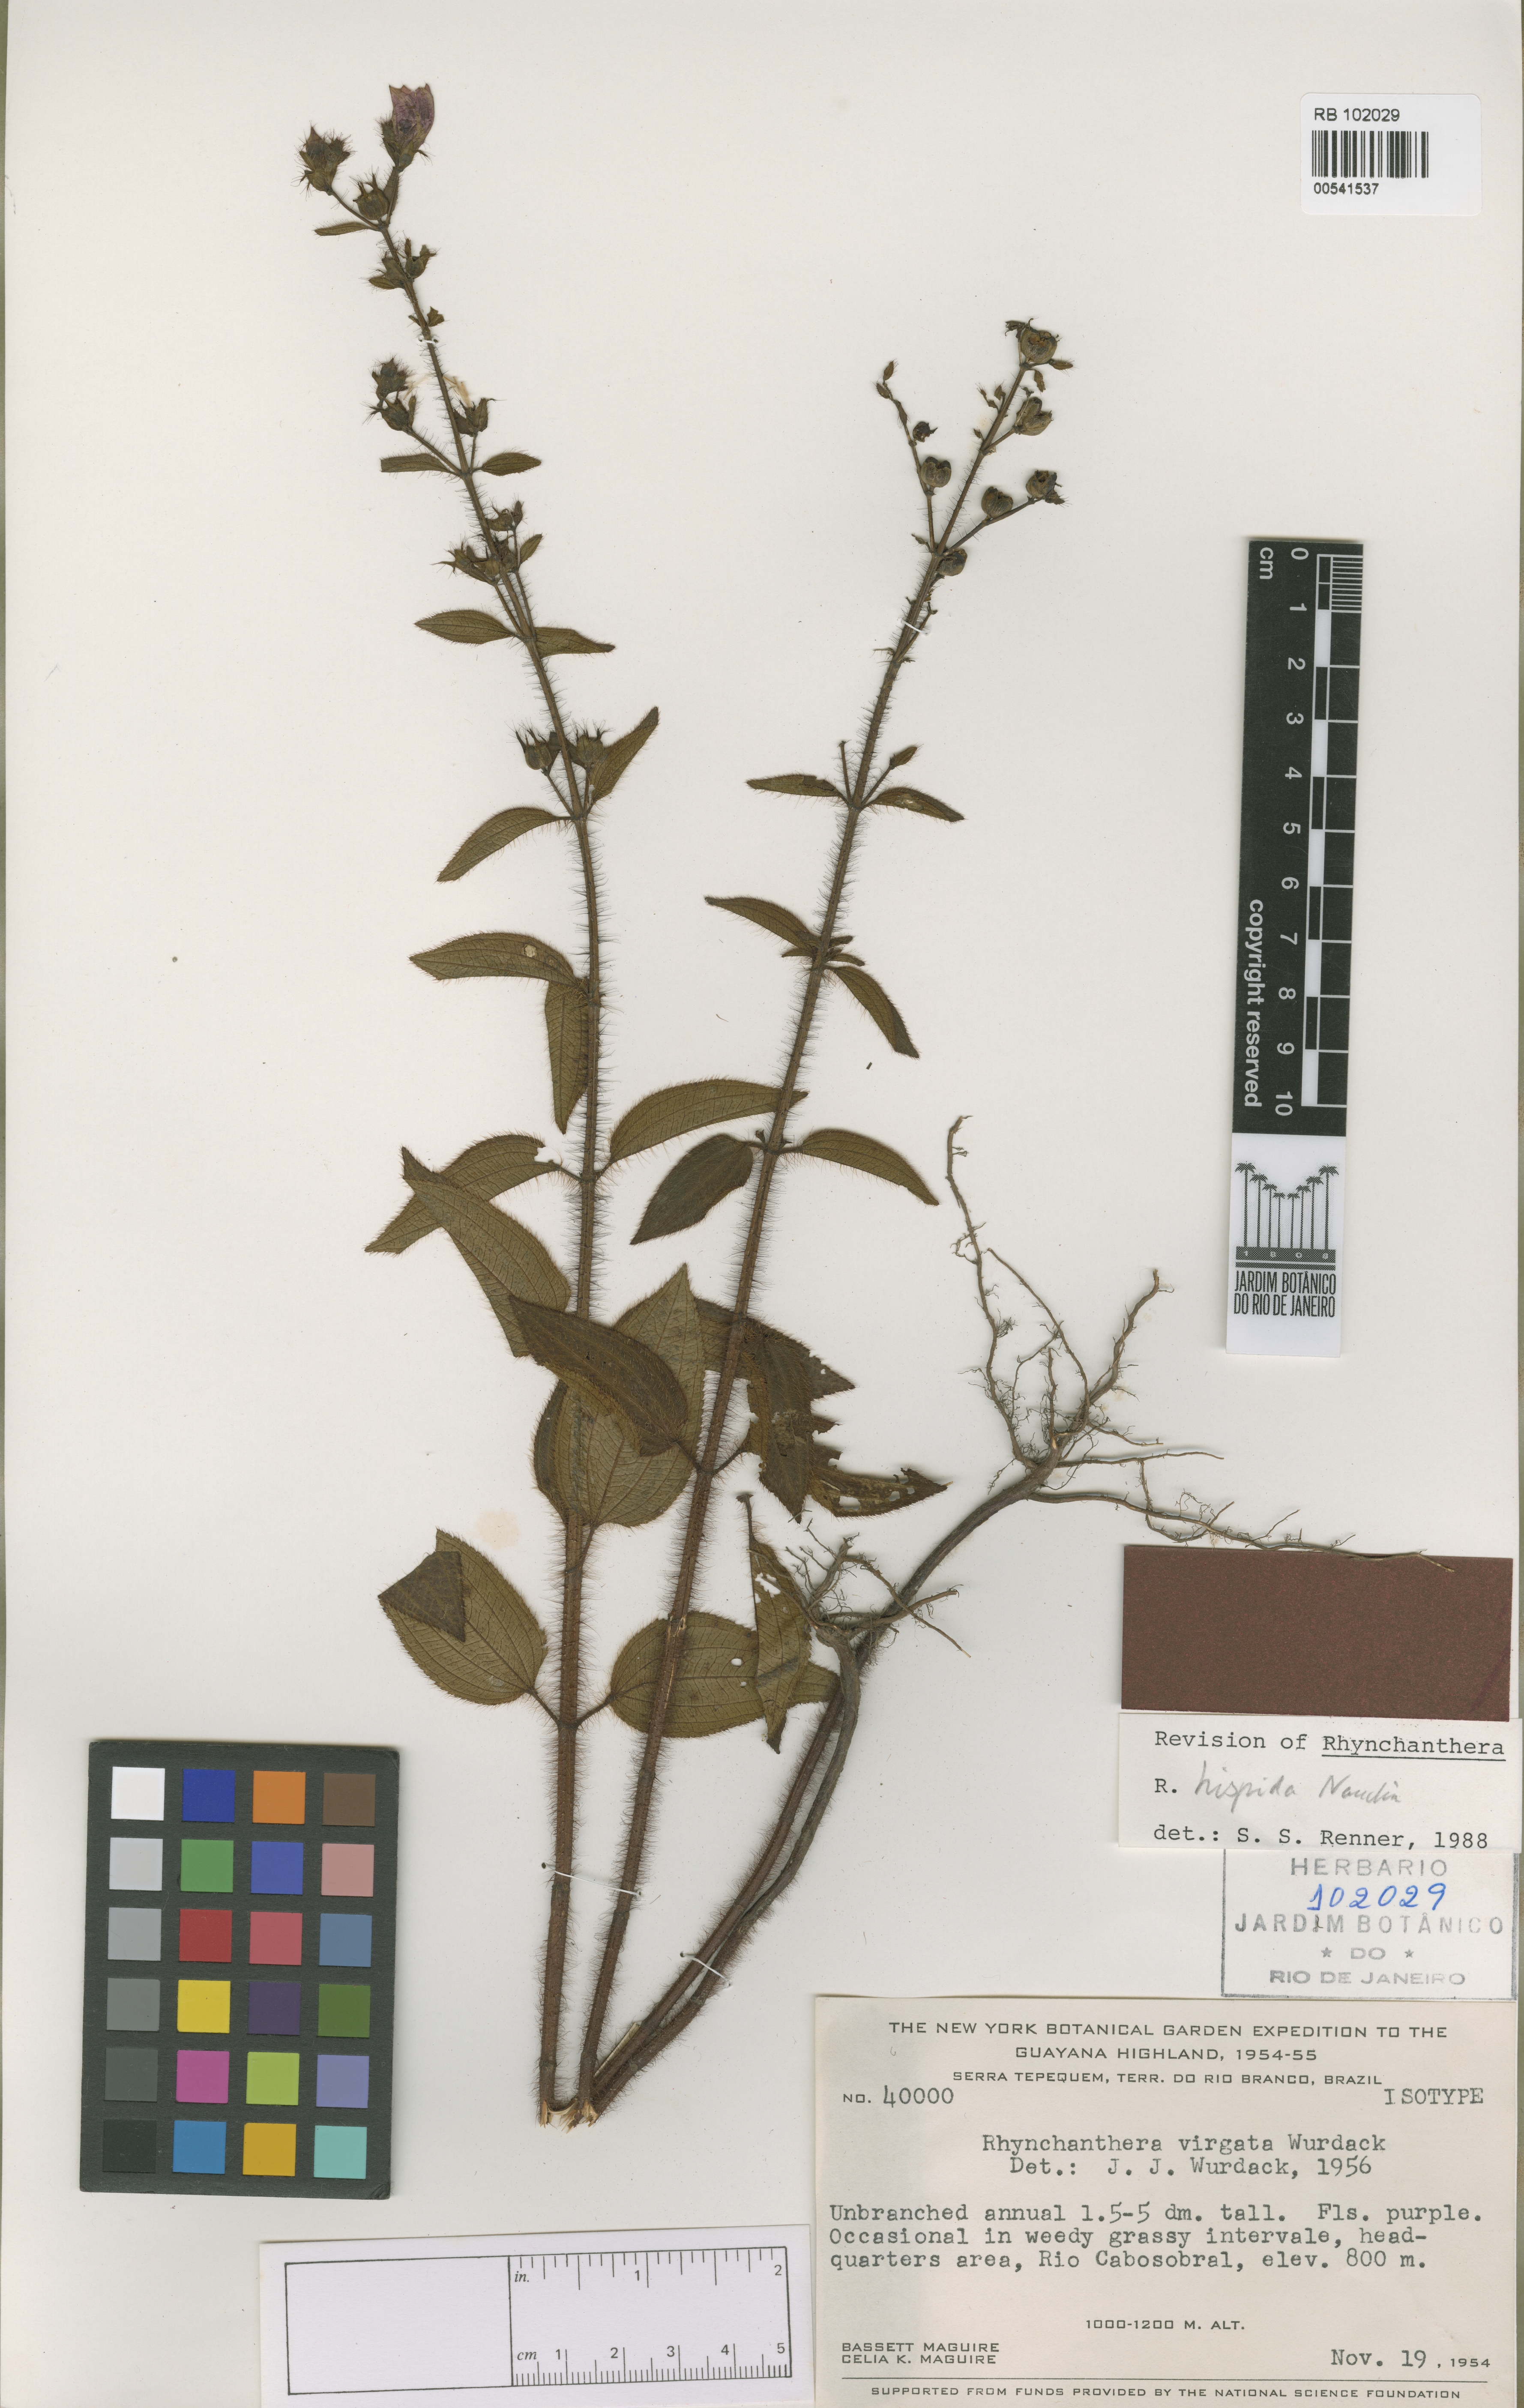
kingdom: Plantae
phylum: Tracheophyta
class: Magnoliopsida
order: Myrtales
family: Melastomataceae
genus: Rhynchanthera
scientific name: Rhynchanthera hispida
